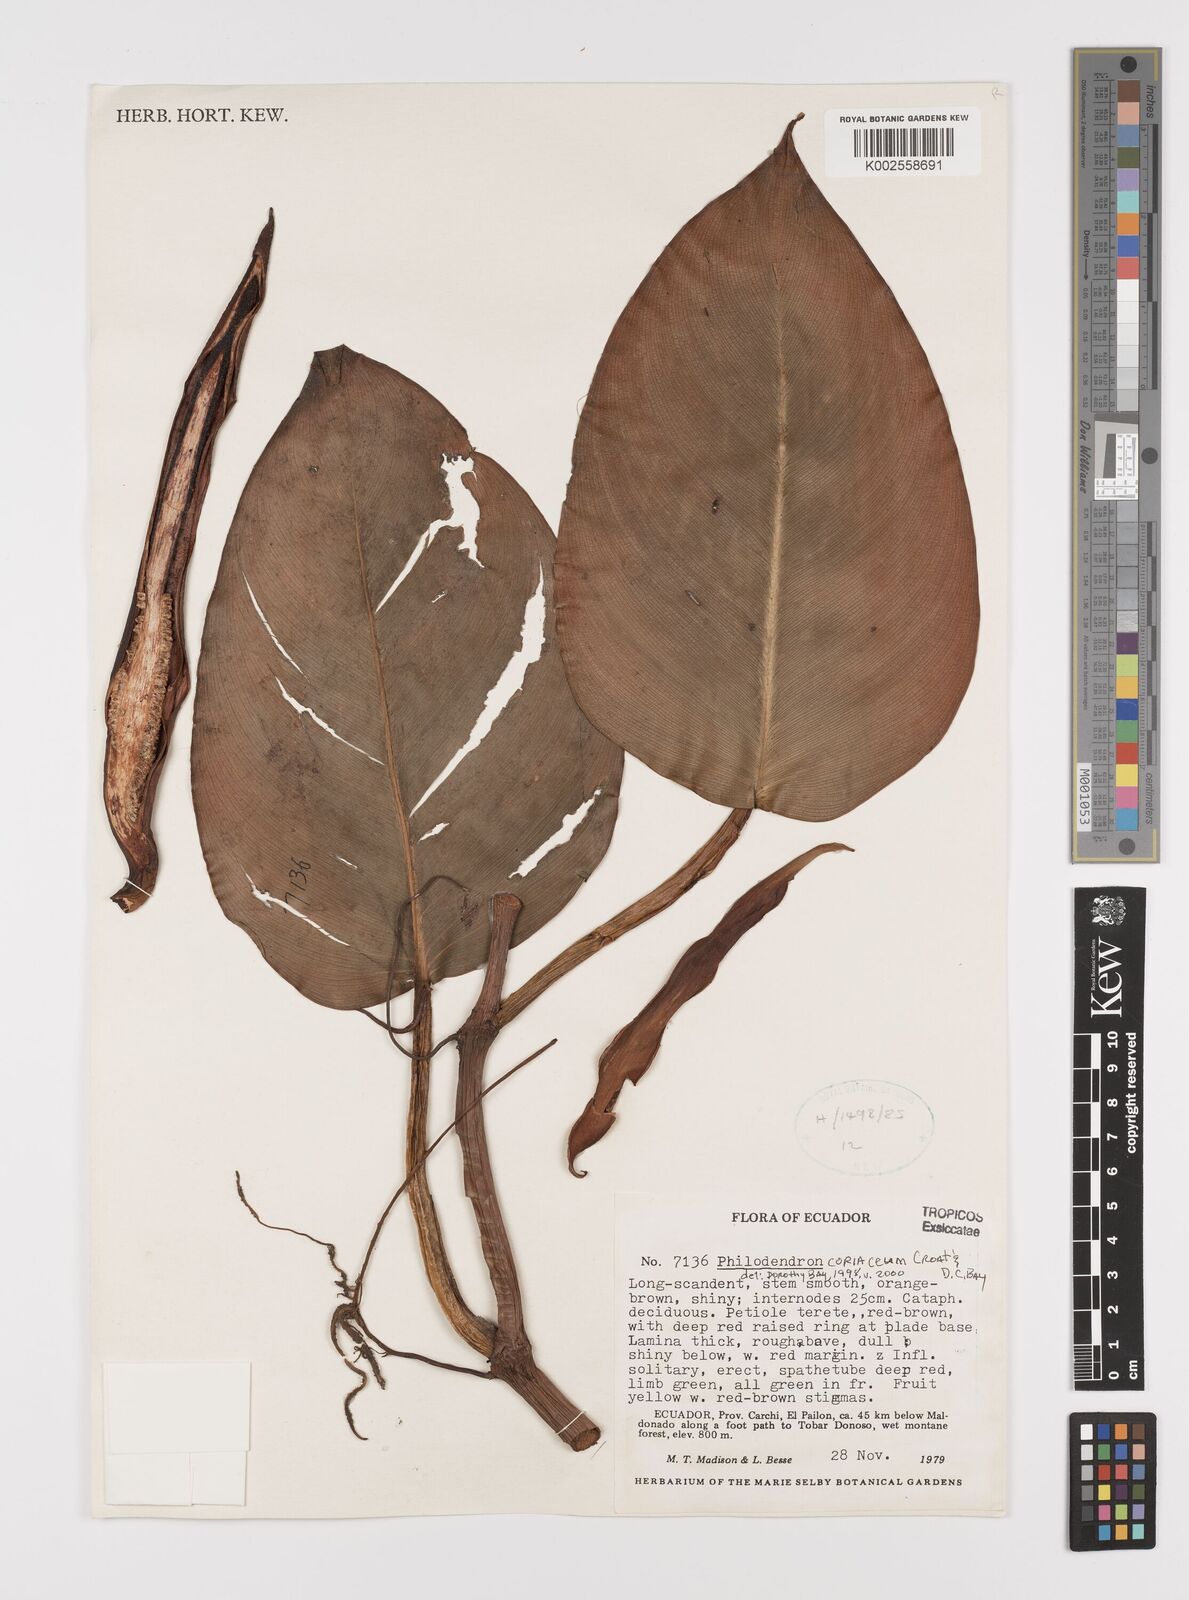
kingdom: Plantae
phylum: Tracheophyta
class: Liliopsida
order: Alismatales
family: Araceae
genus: Philodendron
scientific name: Philodendron coriaceum
